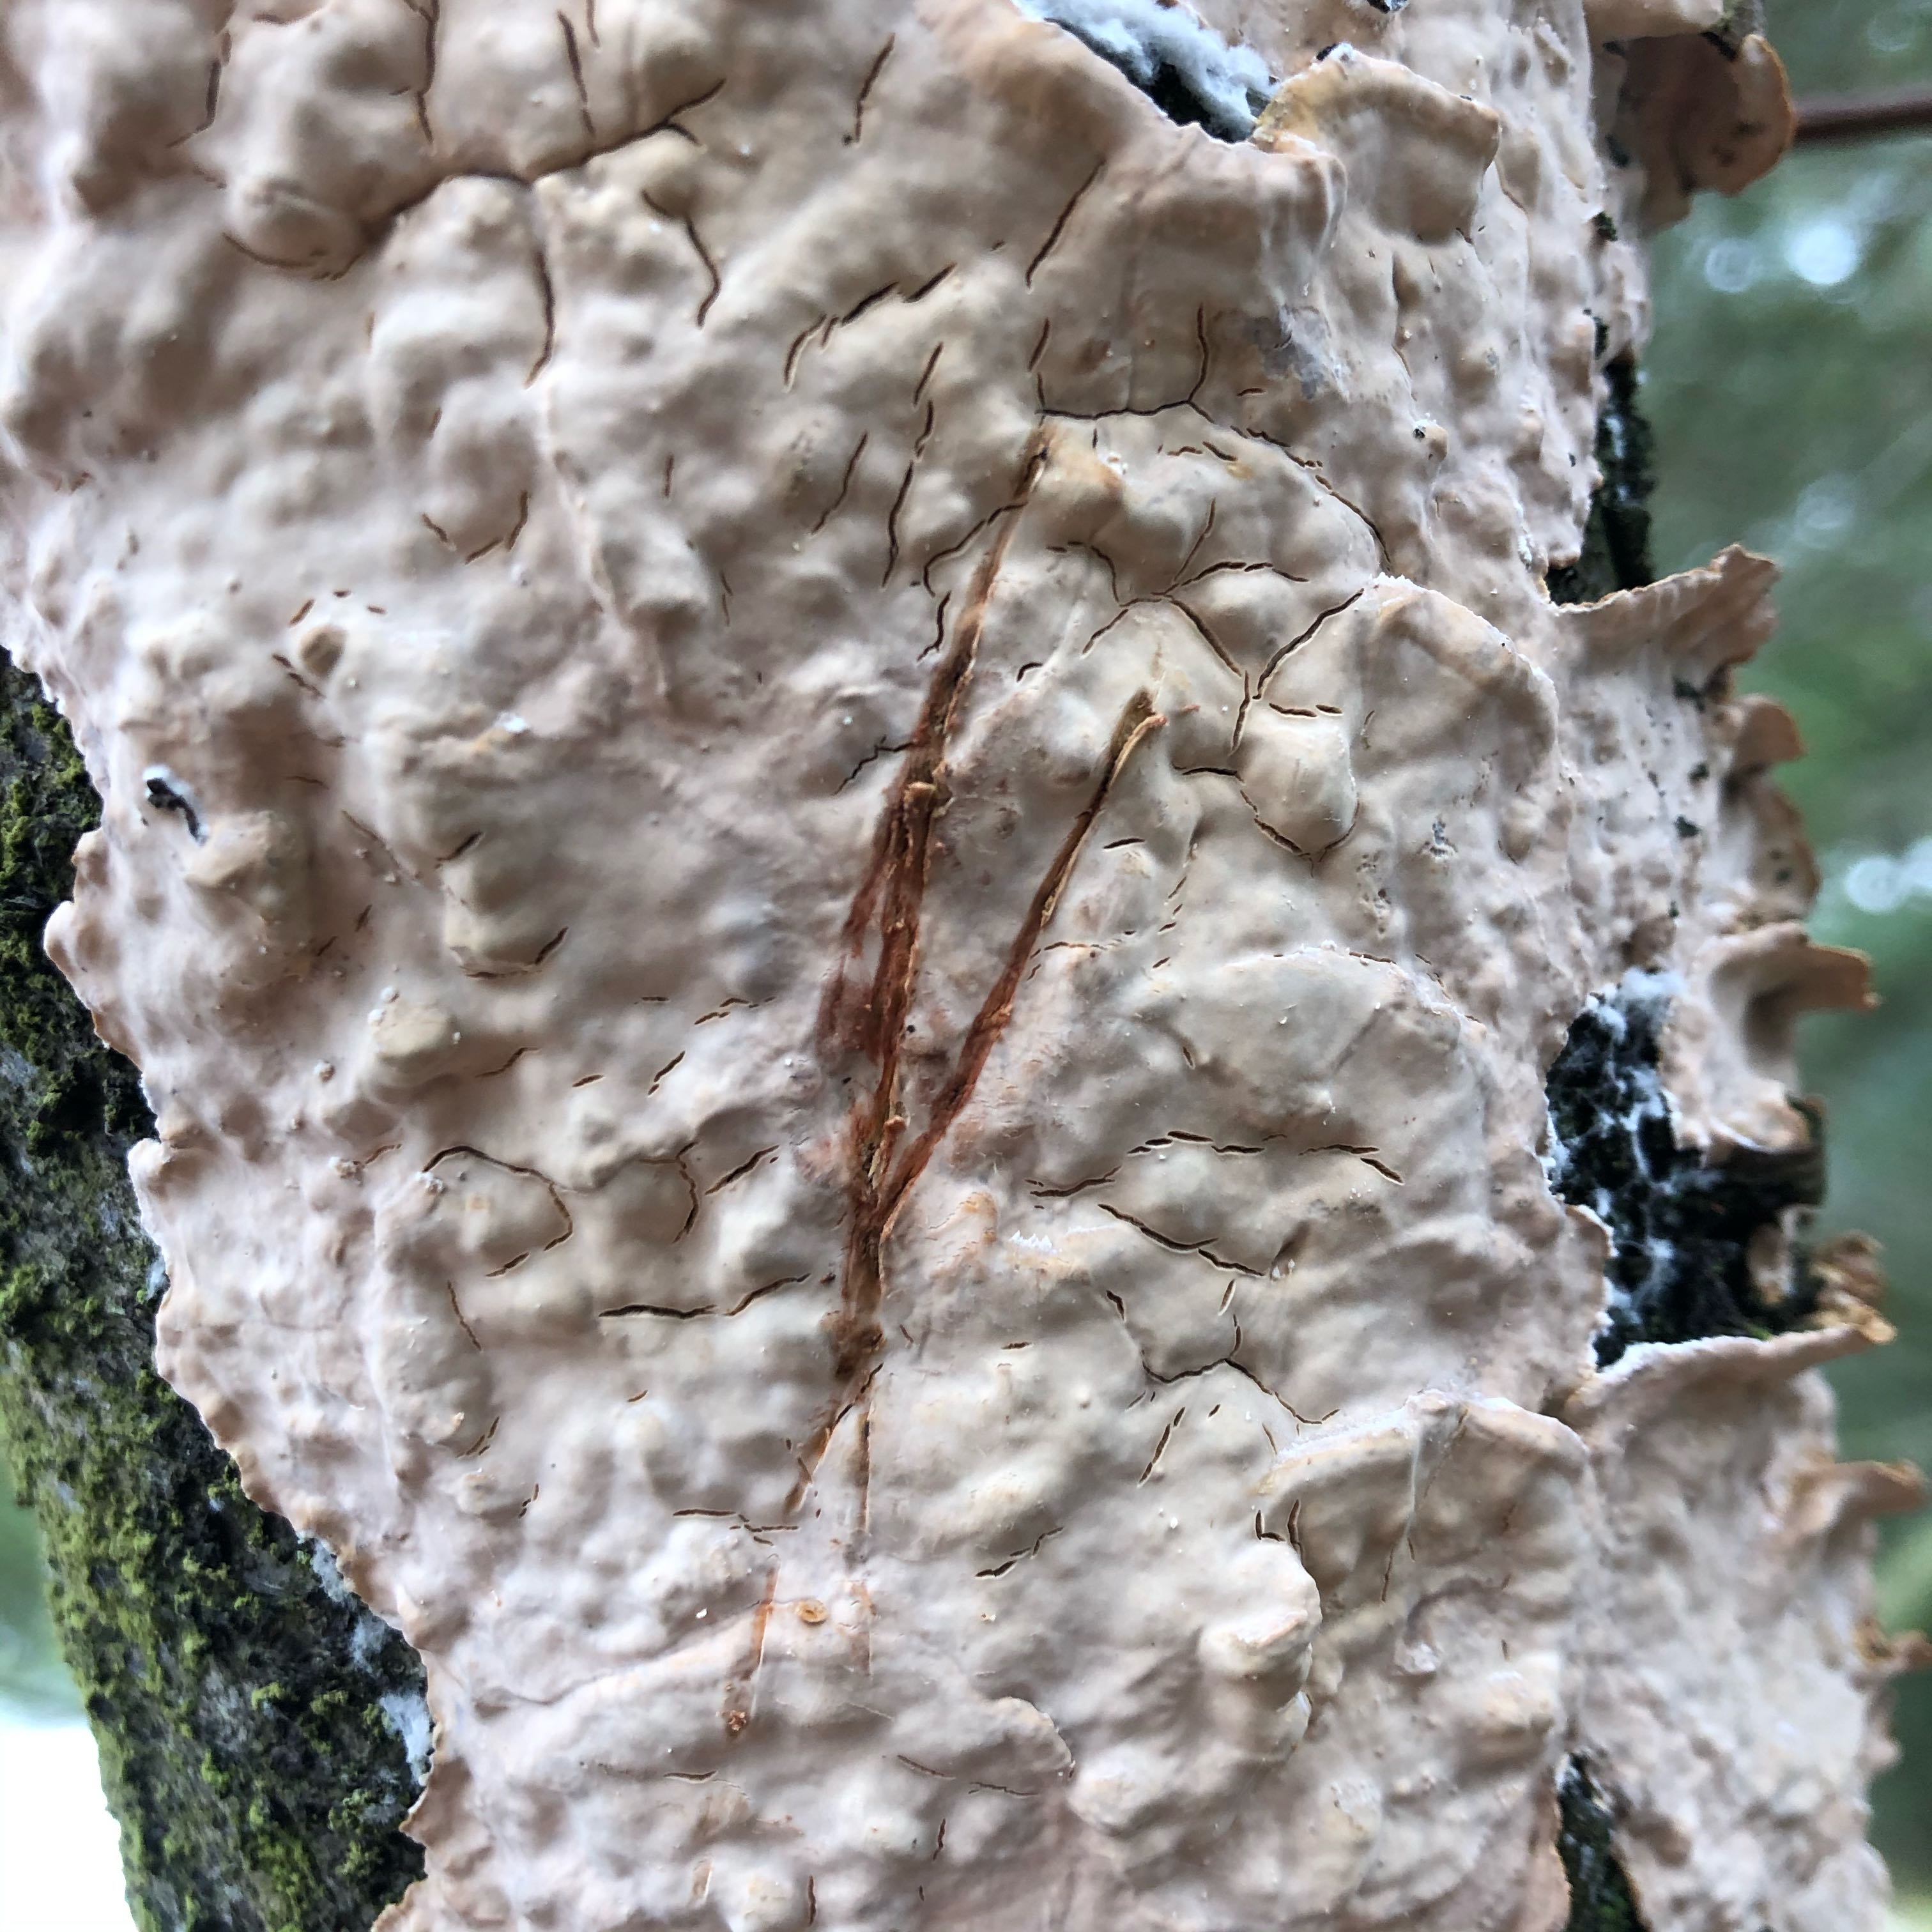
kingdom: Fungi
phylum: Basidiomycota
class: Agaricomycetes
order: Russulales
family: Stereaceae
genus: Stereum
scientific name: Stereum rugosum
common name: rynket lædersvamp
